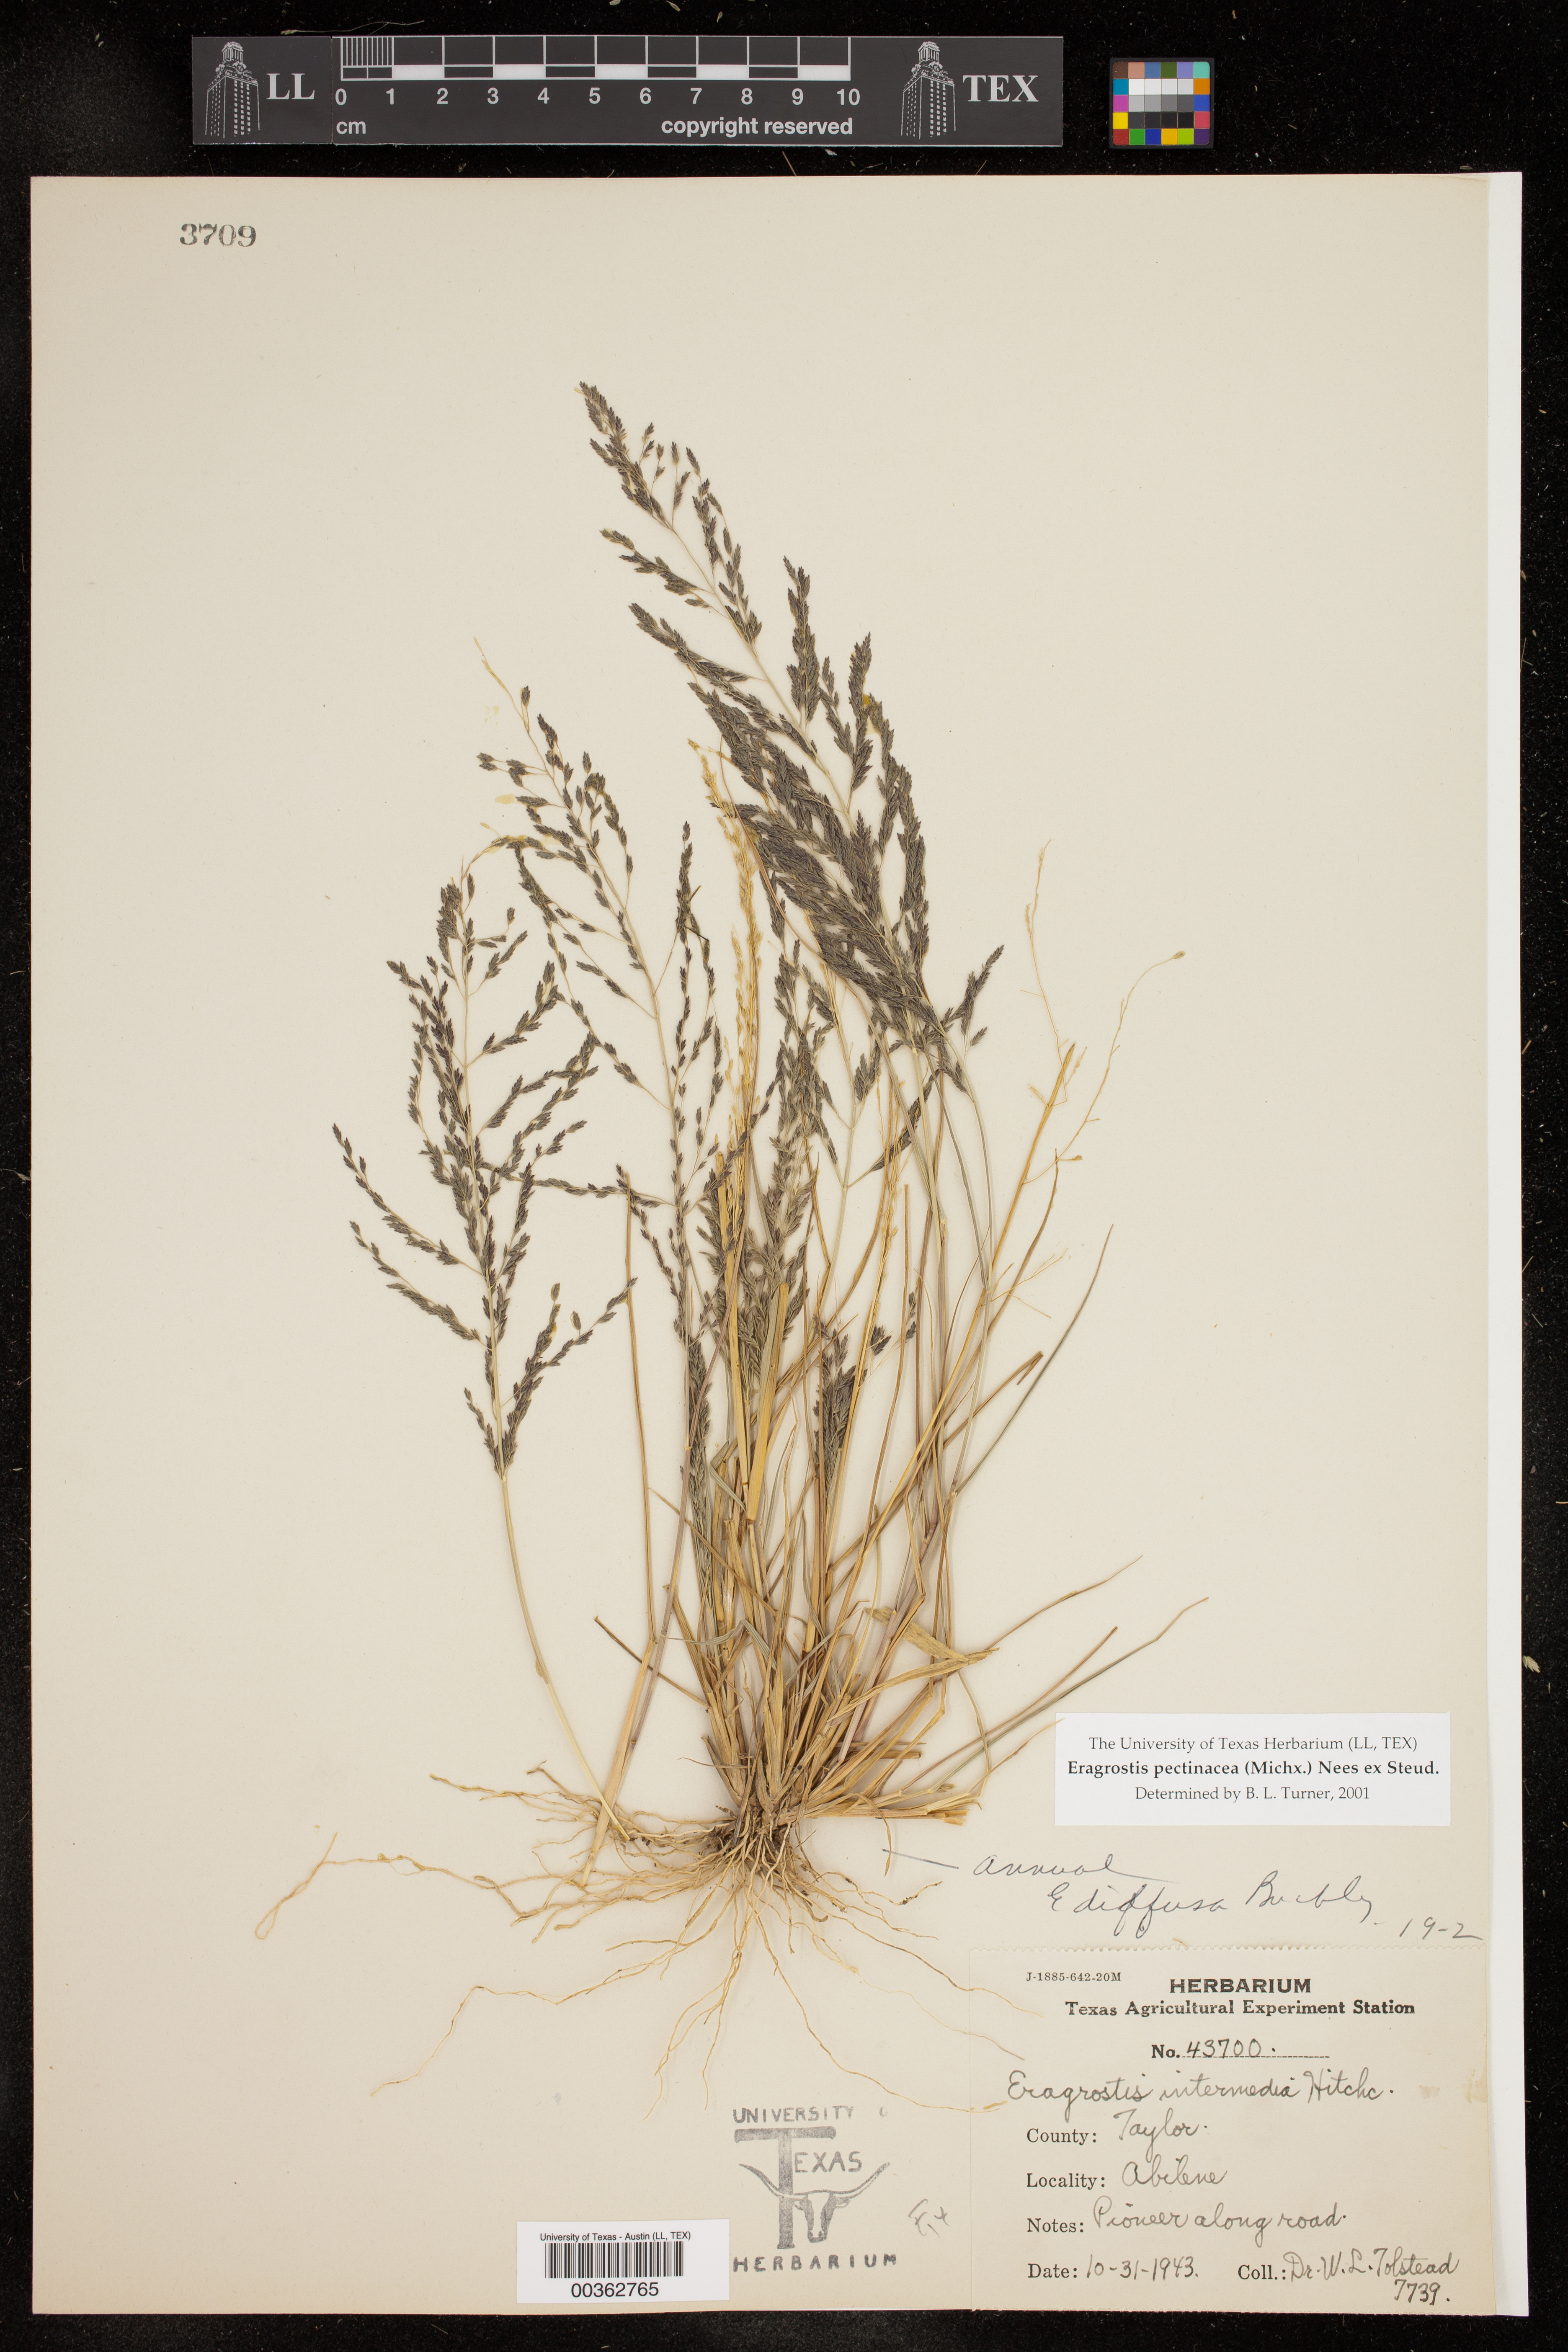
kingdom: Plantae
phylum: Tracheophyta
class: Liliopsida
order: Poales
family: Poaceae
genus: Eragrostis
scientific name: Eragrostis pectinacea
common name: Tufted lovegrass
